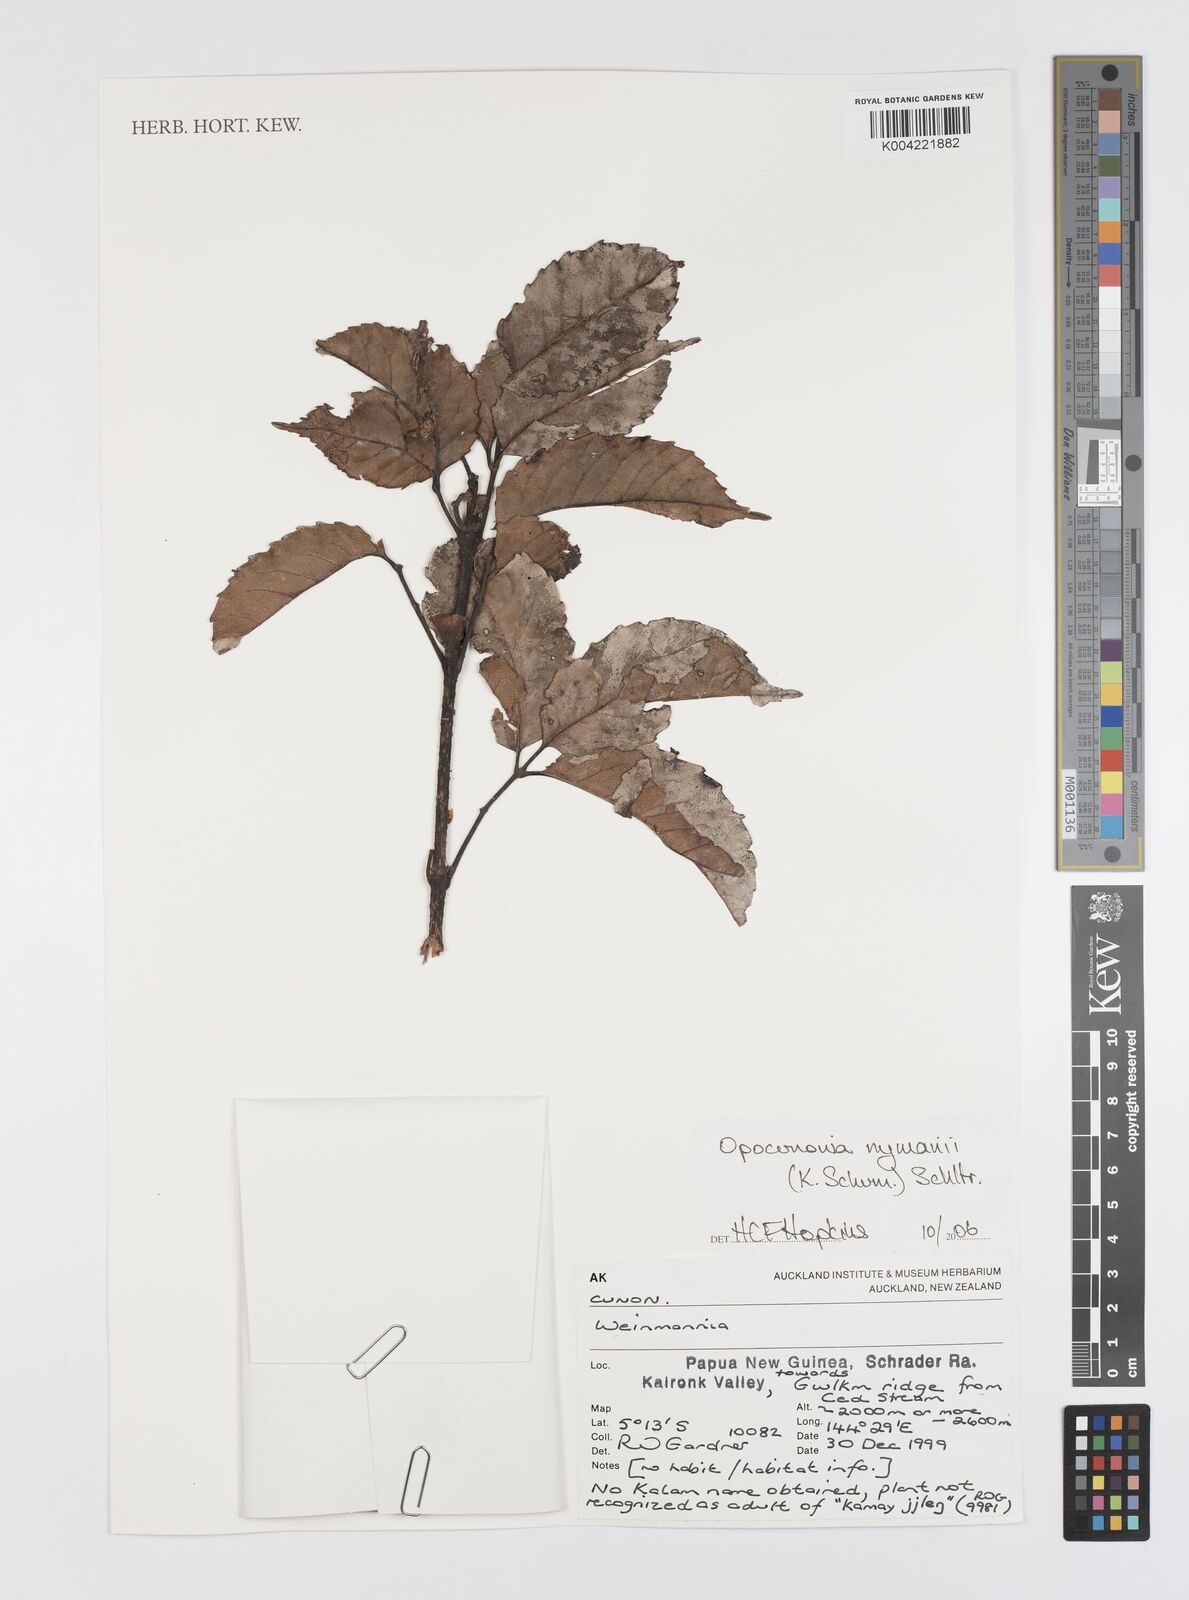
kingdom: Plantae
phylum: Tracheophyta
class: Magnoliopsida
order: Oxalidales
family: Cunoniaceae
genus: Opocunonia
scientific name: Opocunonia nymanii
